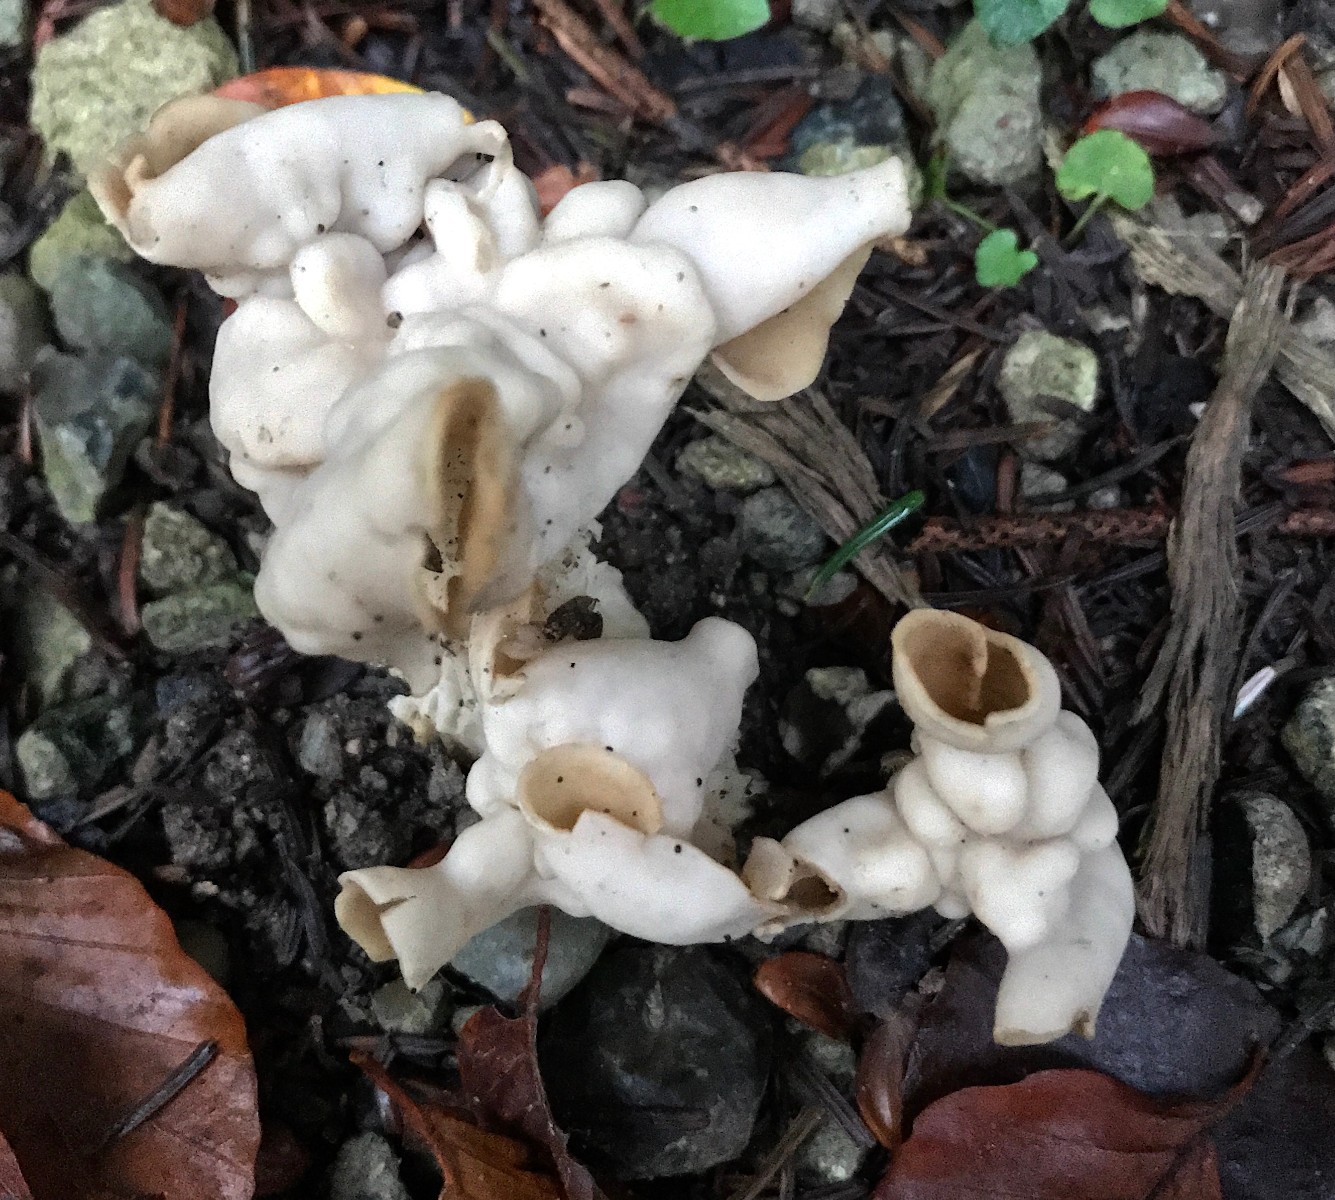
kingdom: Fungi
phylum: Ascomycota
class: Pezizomycetes
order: Pezizales
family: Helvellaceae
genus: Helvella
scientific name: Helvella crispa
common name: kruset foldhat
